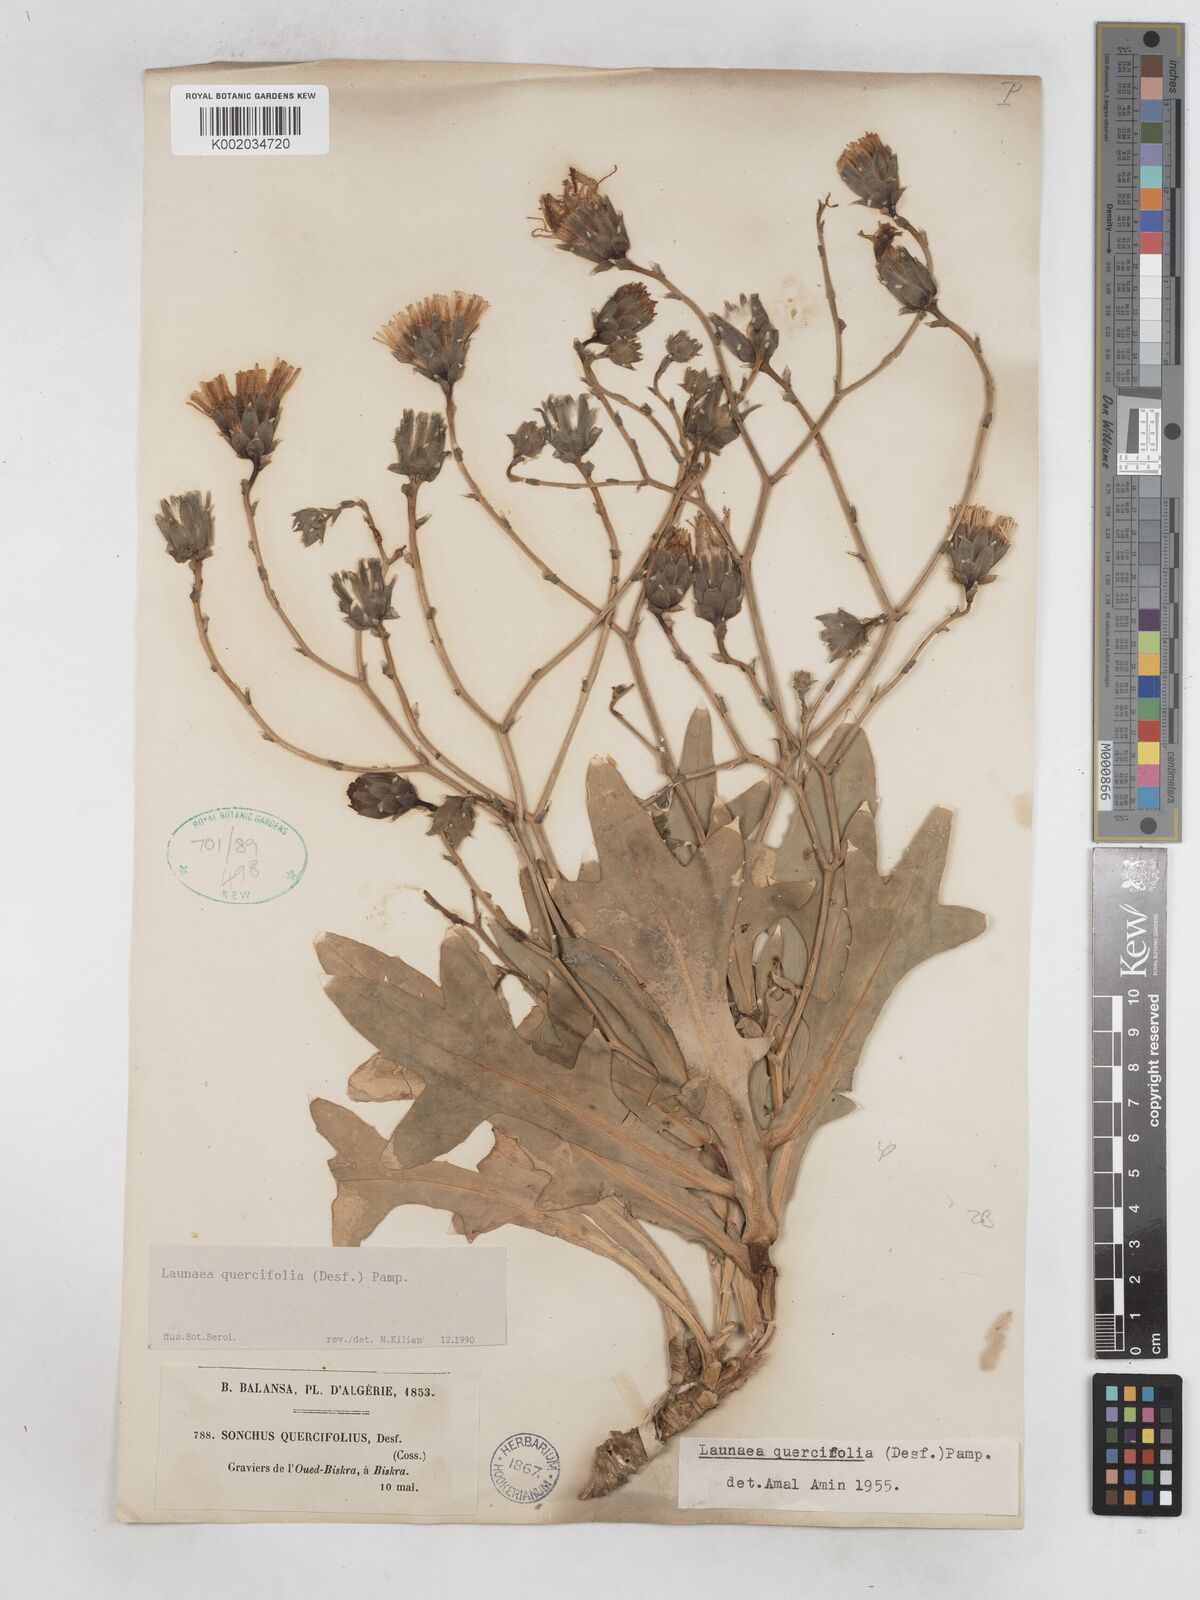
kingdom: Plantae
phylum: Tracheophyta
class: Magnoliopsida
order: Asterales
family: Asteraceae
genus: Launaea
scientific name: Launaea quercifolia
